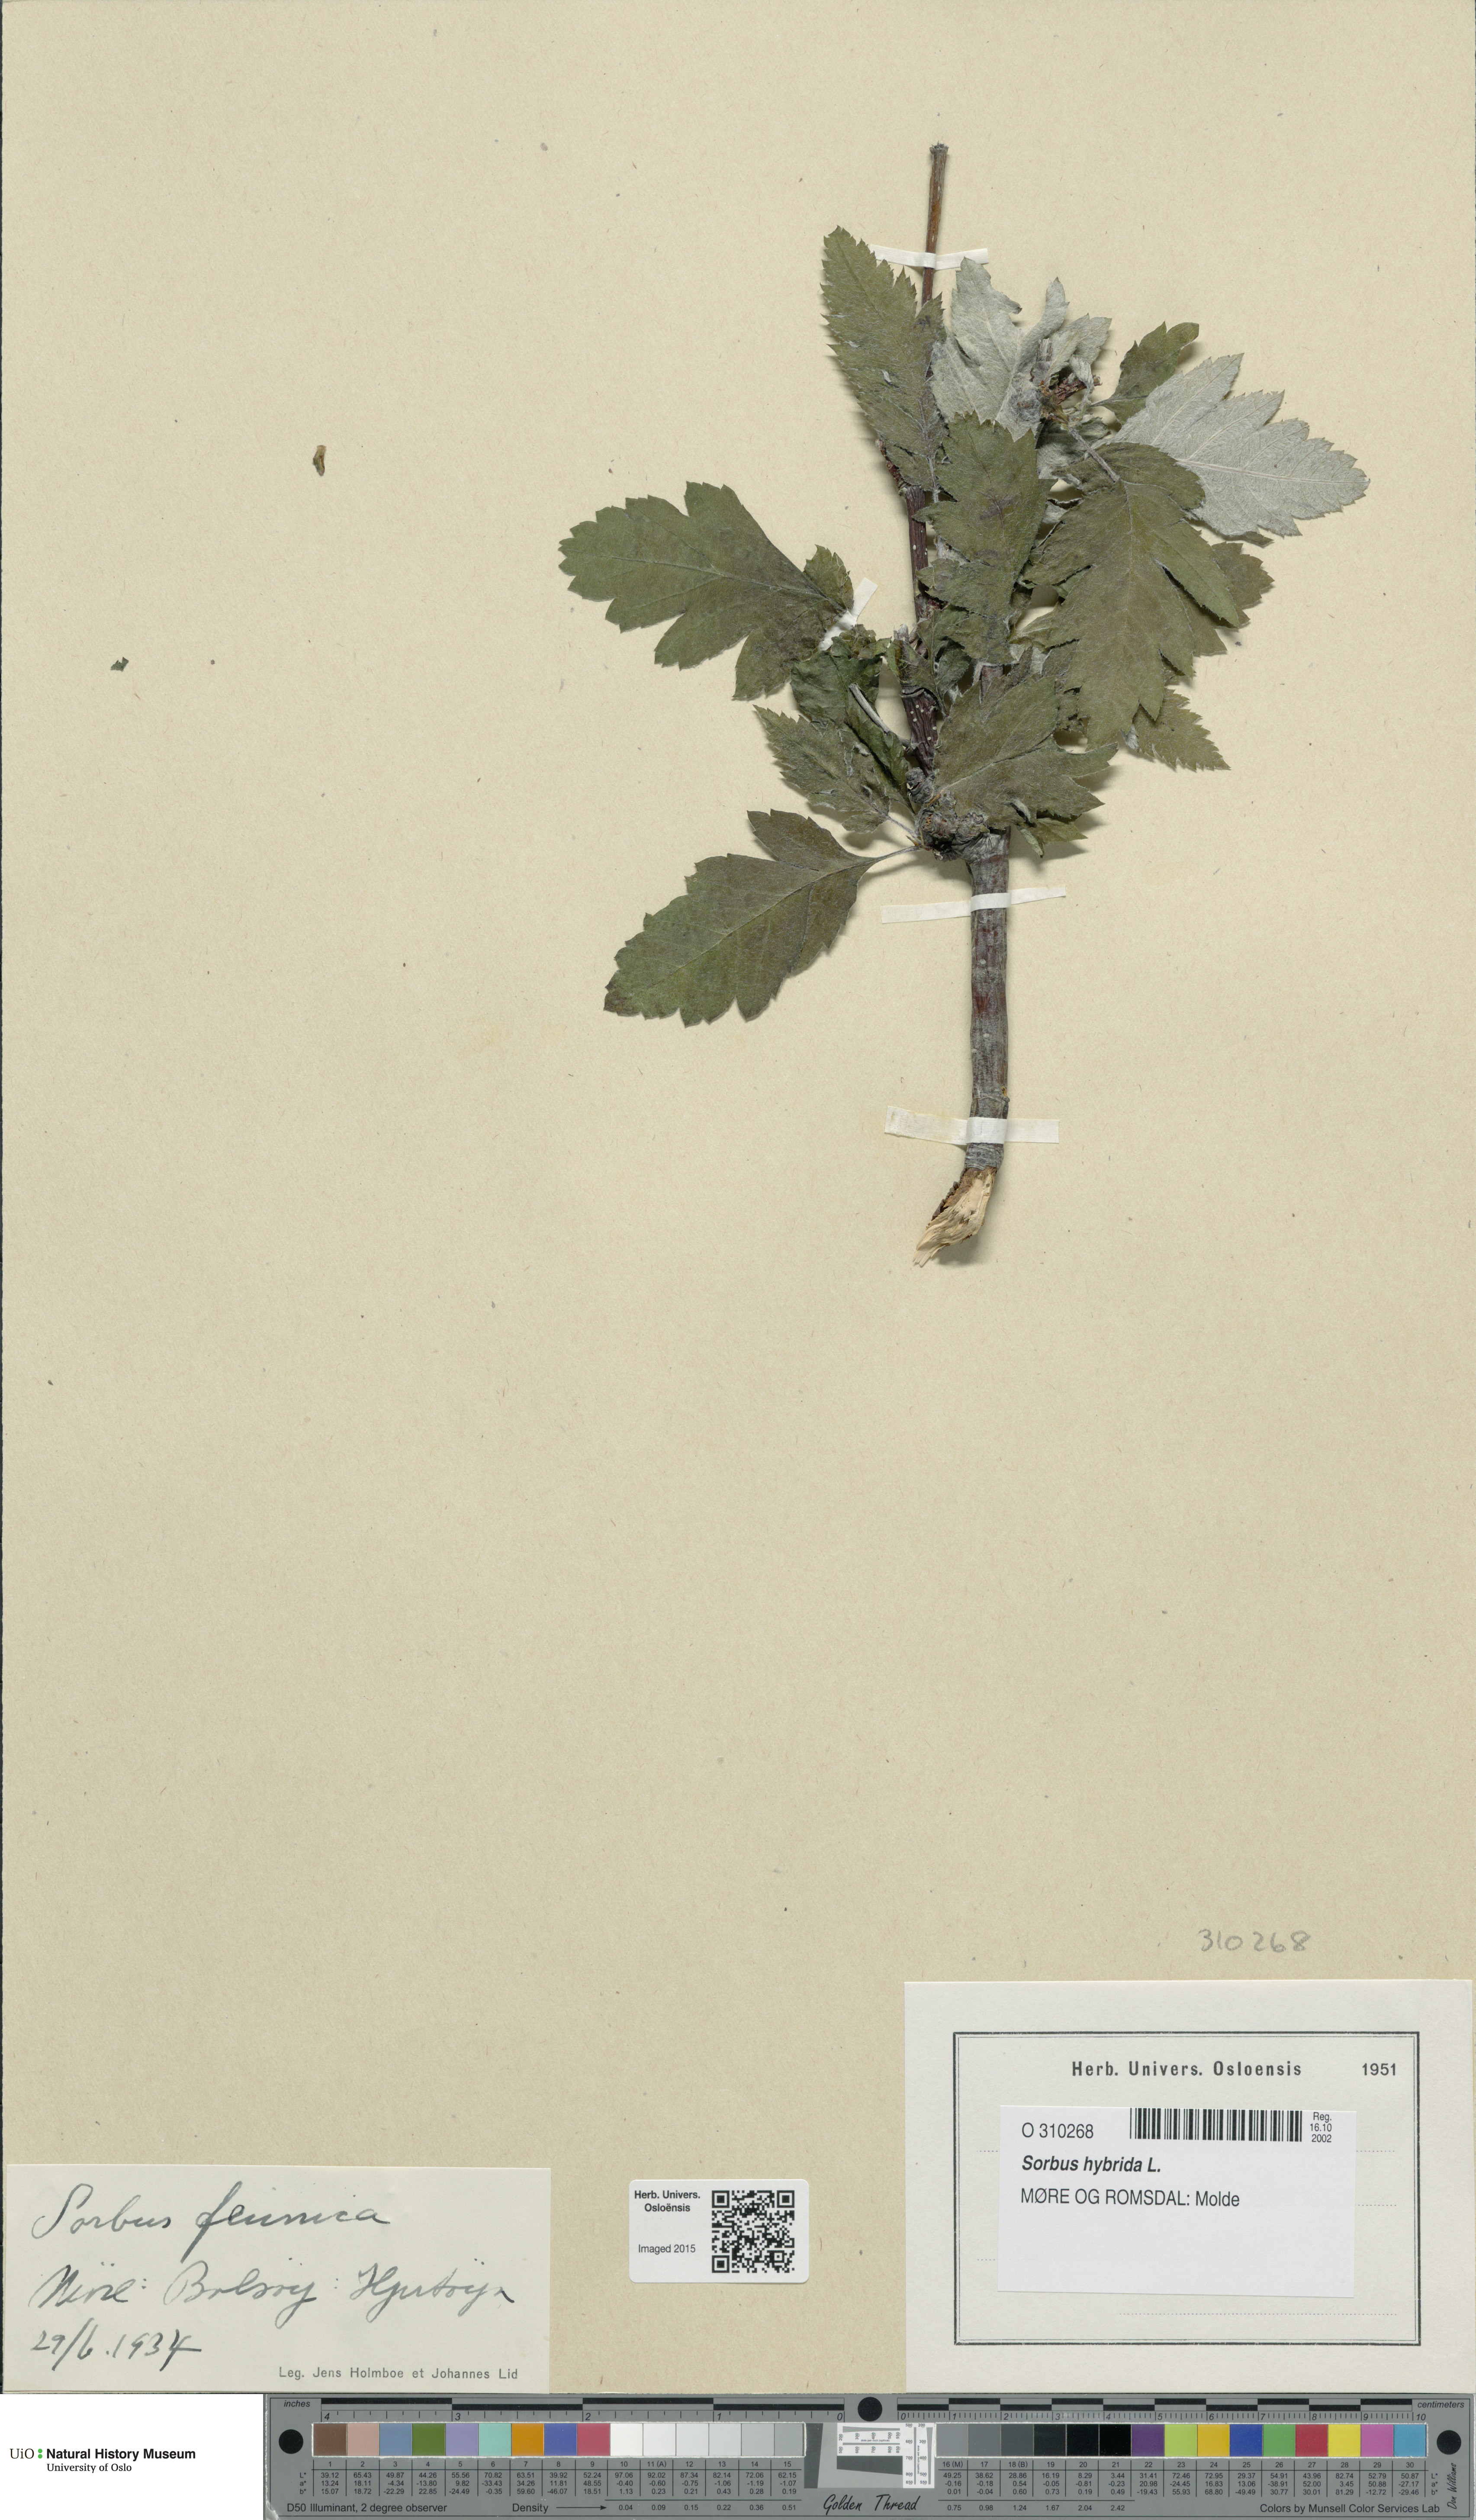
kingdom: Plantae
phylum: Tracheophyta
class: Magnoliopsida
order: Rosales
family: Rosaceae
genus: Hedlundia
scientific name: Hedlundia hybrida
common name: Swedish service-tree
